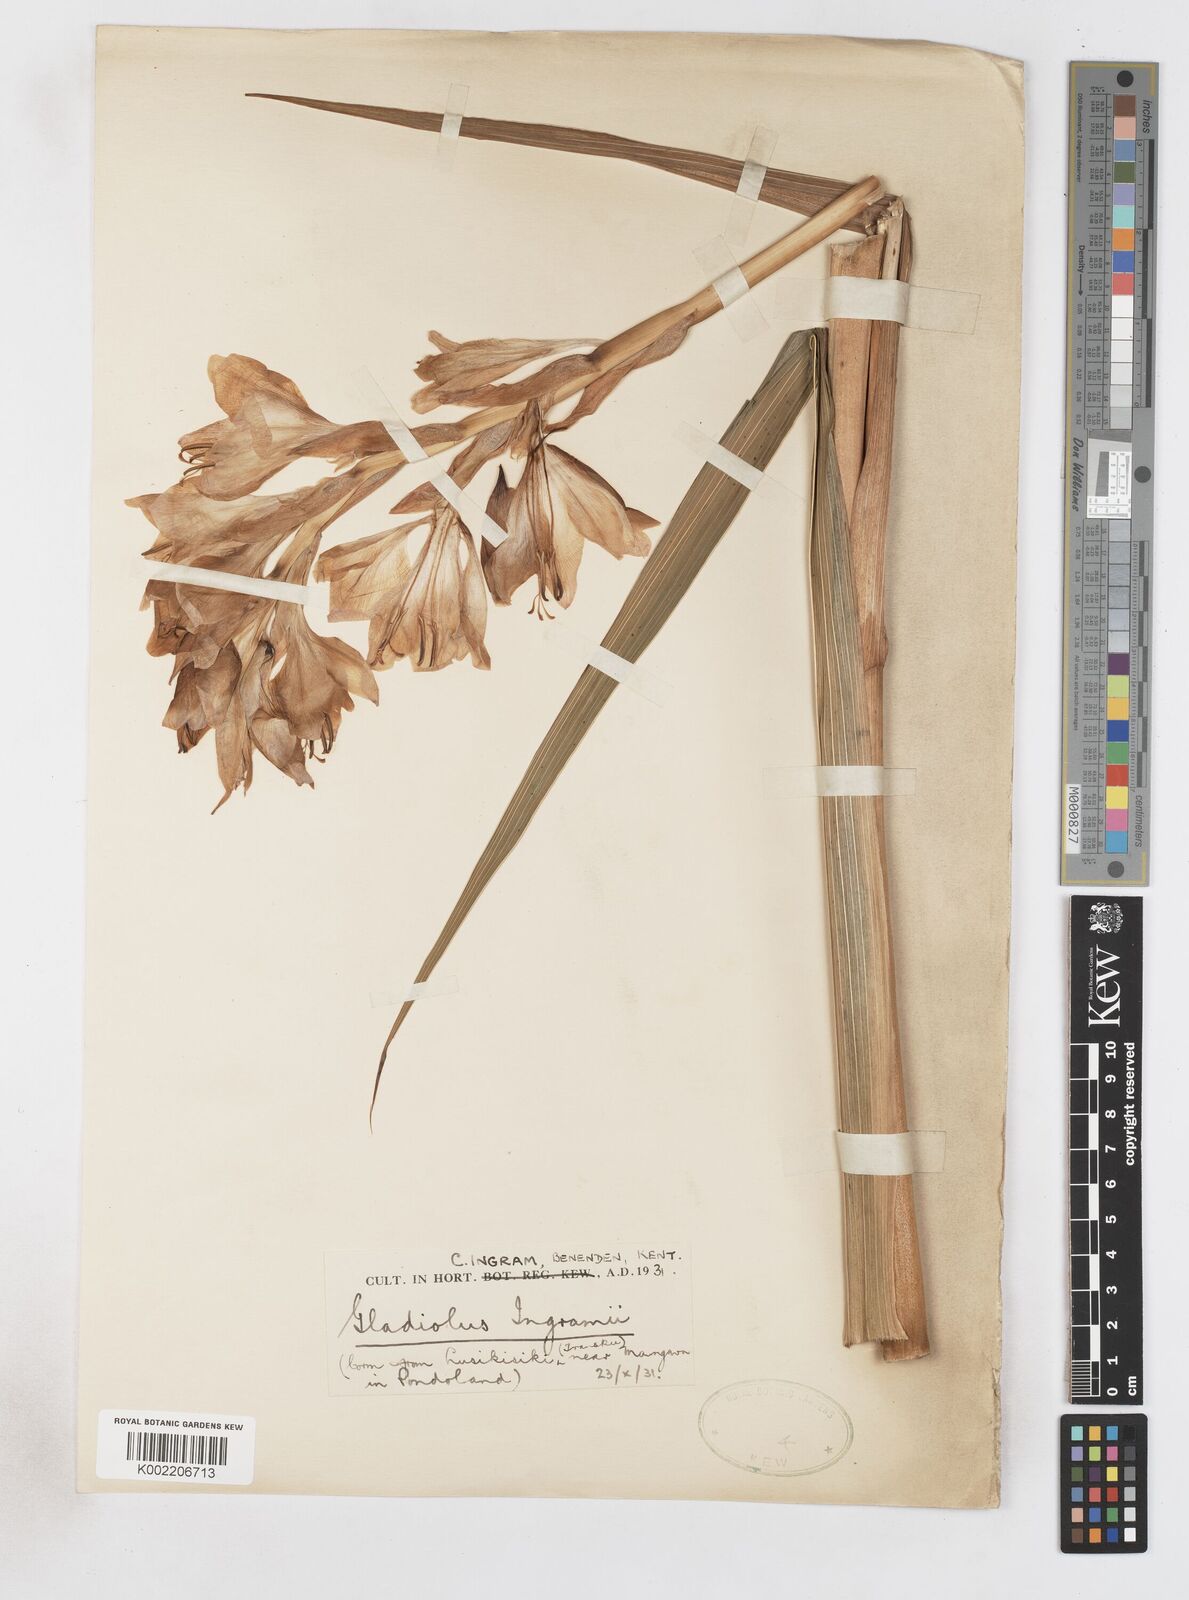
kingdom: Plantae
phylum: Tracheophyta
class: Liliopsida
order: Asparagales
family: Iridaceae
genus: Gladiolus
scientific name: Gladiolus
